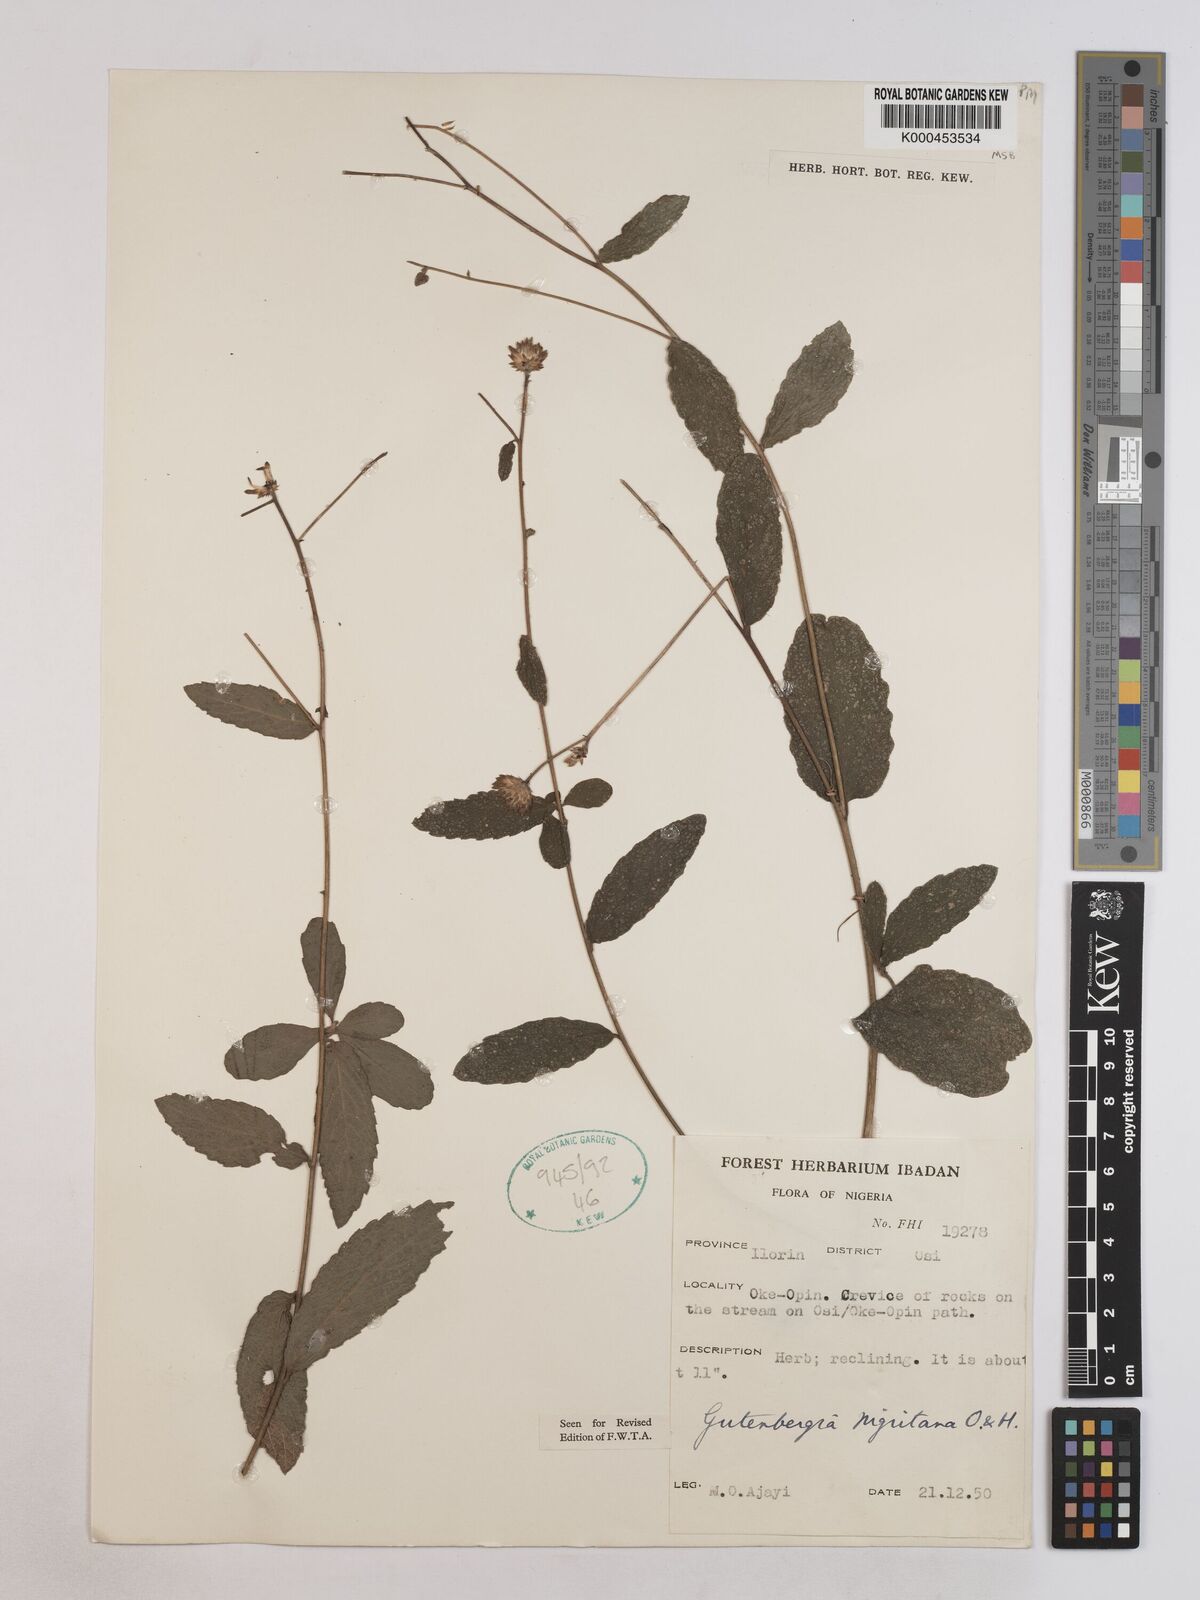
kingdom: Plantae
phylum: Tracheophyta
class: Magnoliopsida
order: Asterales
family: Asteraceae
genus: Kinghamia
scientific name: Kinghamia nigritana
